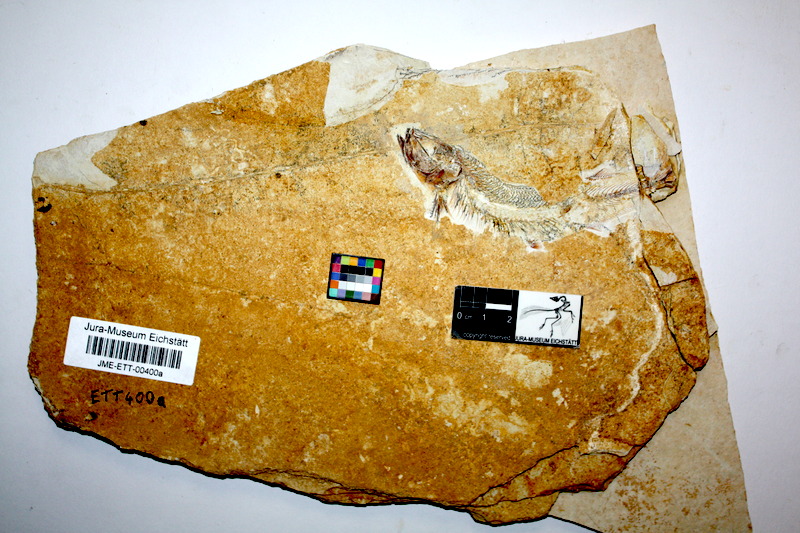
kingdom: Animalia
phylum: Chordata
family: Allothrissopidae
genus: Allothrissops
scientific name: Allothrissops mesogaster
